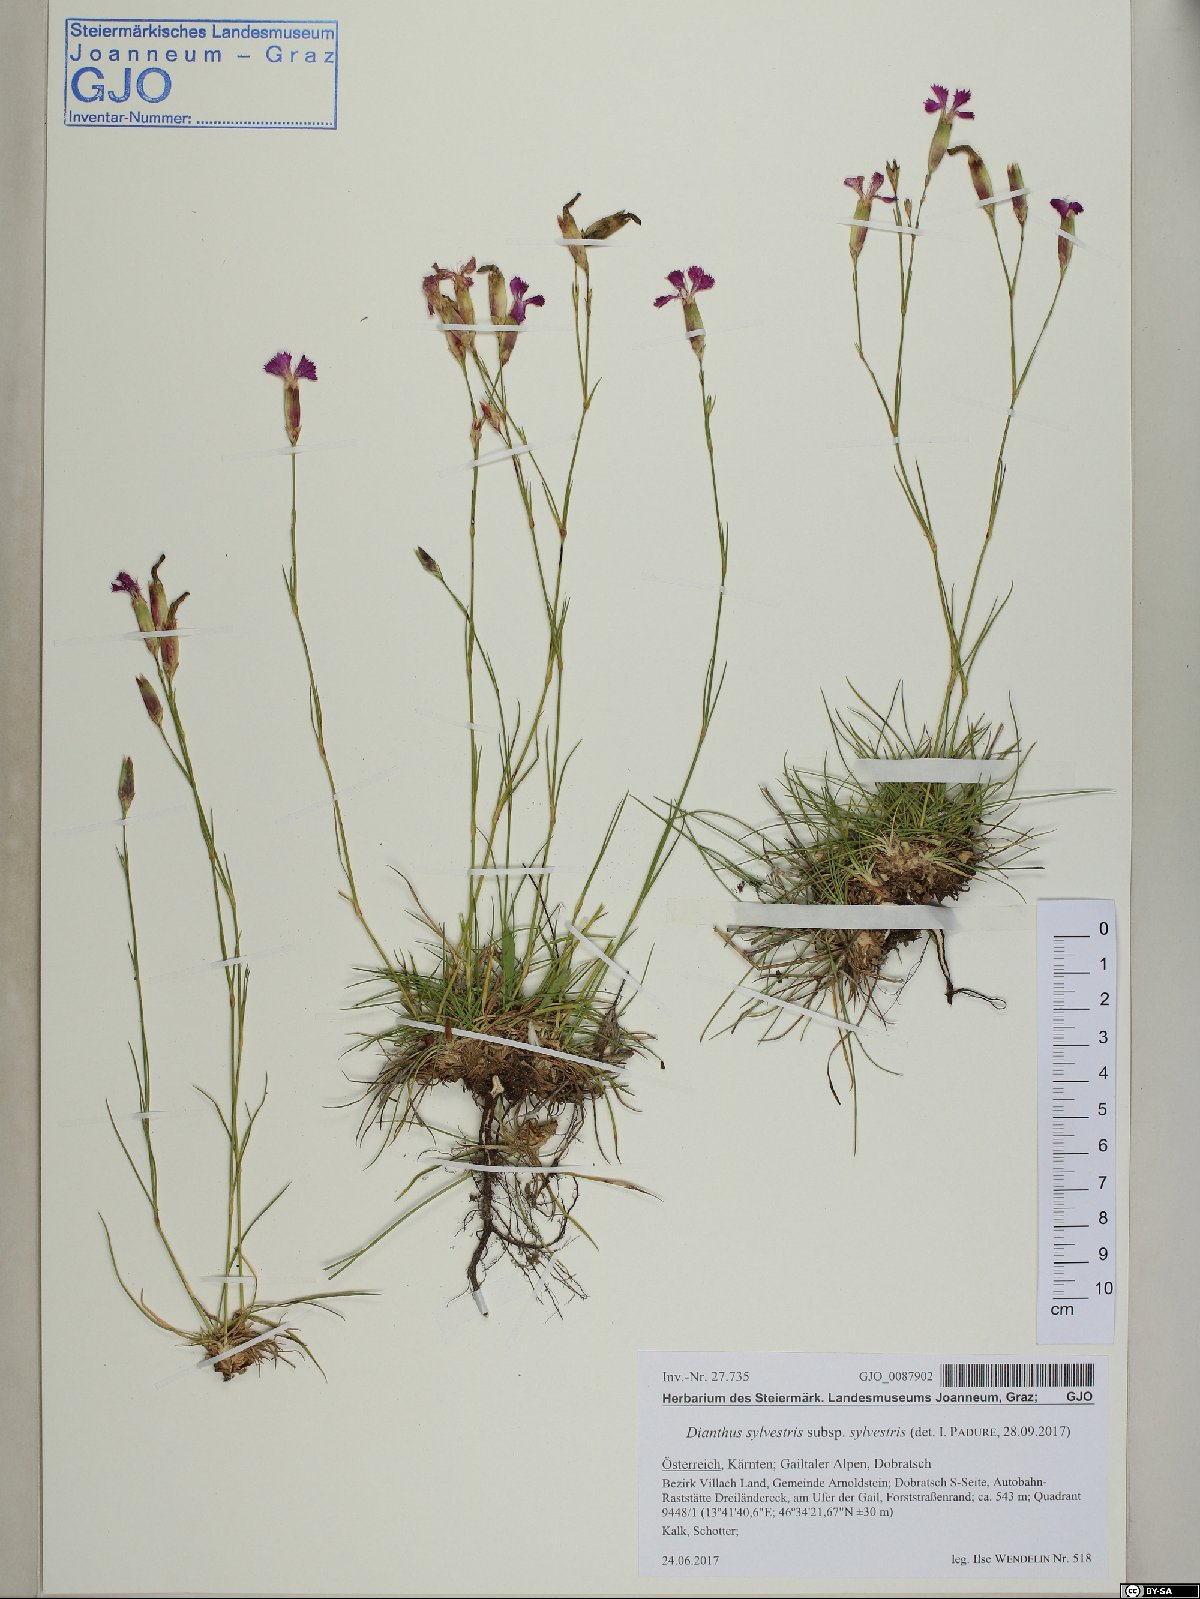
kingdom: Plantae
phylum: Tracheophyta
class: Magnoliopsida
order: Caryophyllales
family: Caryophyllaceae
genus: Dianthus
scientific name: Dianthus sylvestris
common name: Wood pink
